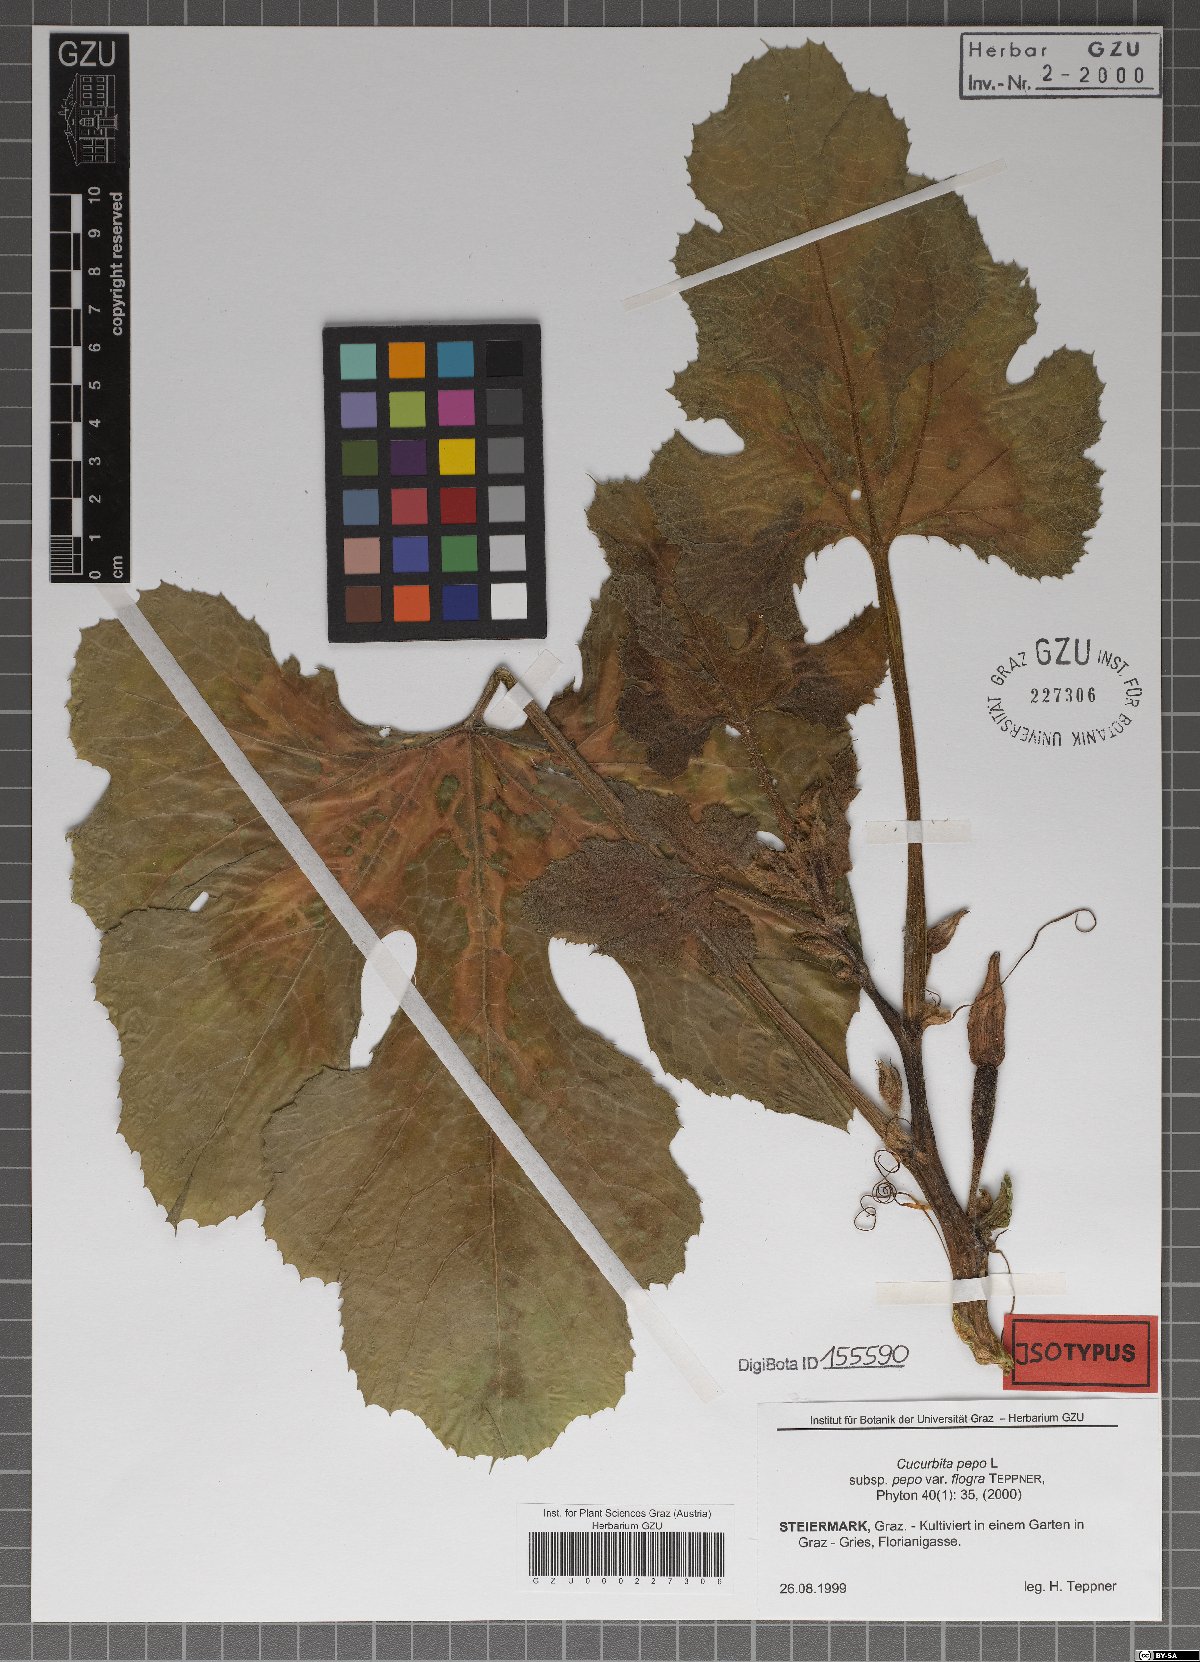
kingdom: Plantae
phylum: Tracheophyta
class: Magnoliopsida
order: Cucurbitales
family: Cucurbitaceae
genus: Cucurbita
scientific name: Cucurbita pepo
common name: Marrow
